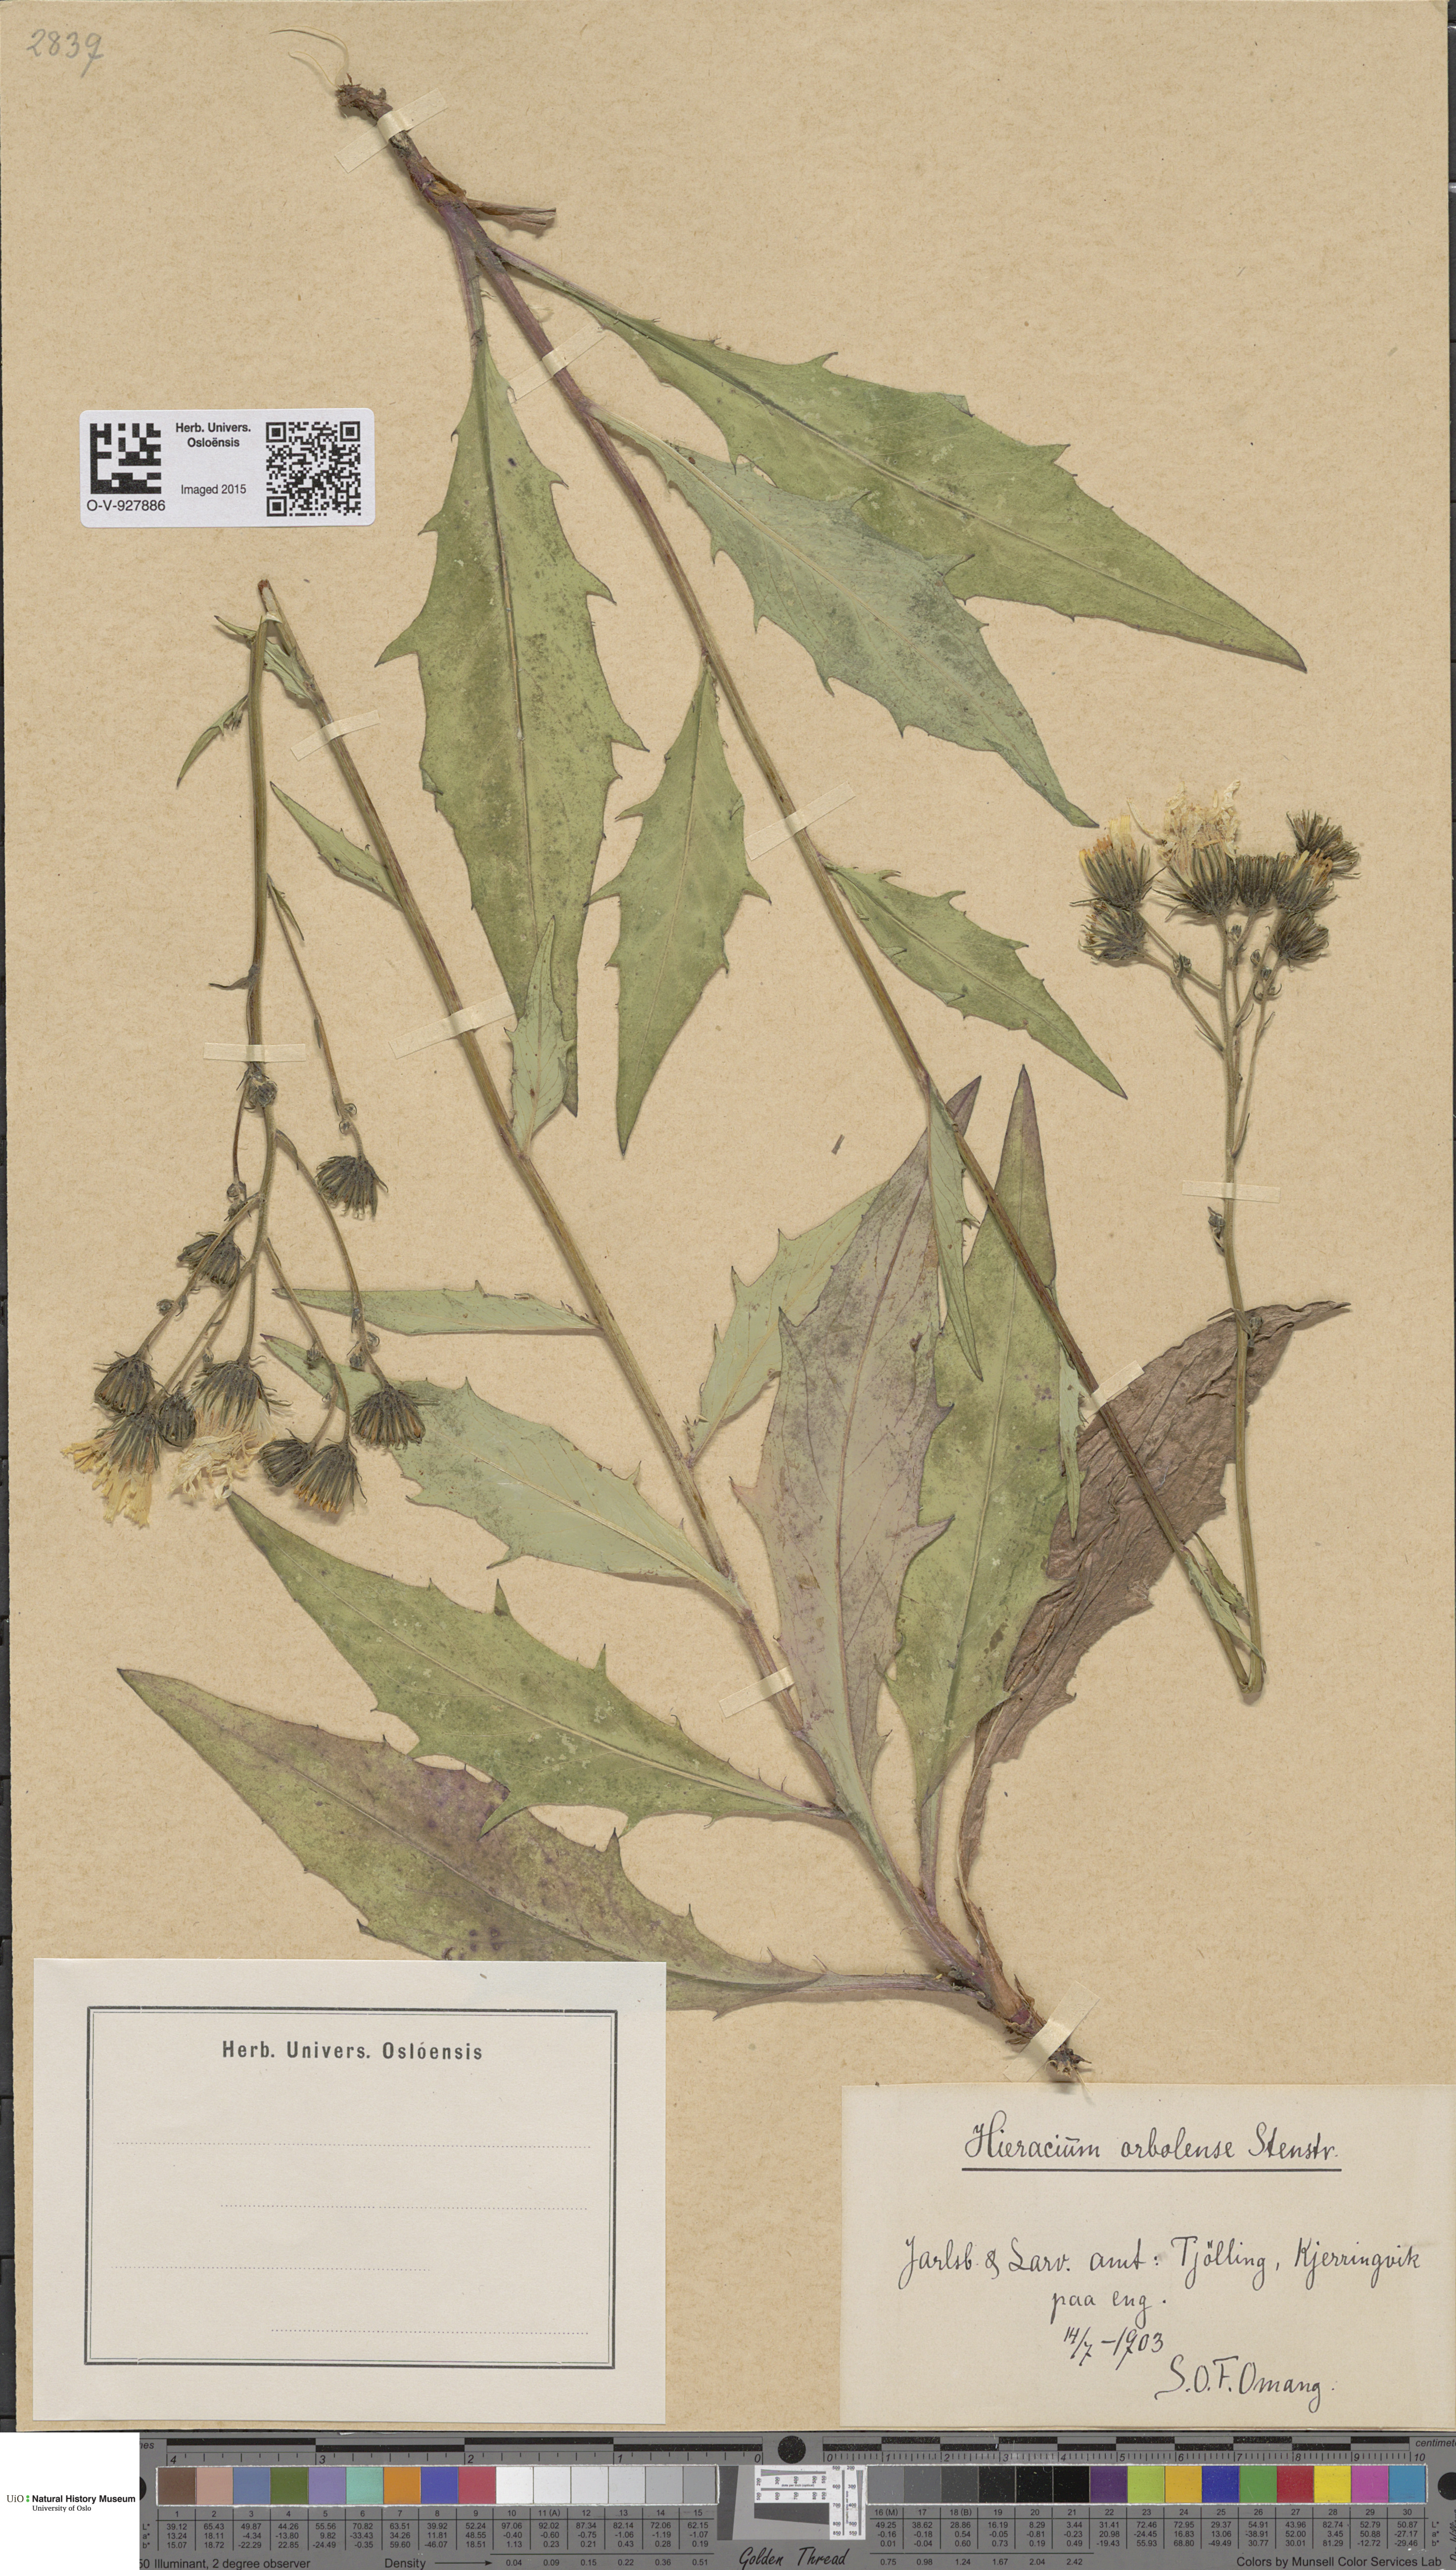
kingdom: Plantae
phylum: Tracheophyta
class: Magnoliopsida
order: Asterales
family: Asteraceae
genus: Hieracium
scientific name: Hieracium orbolense
